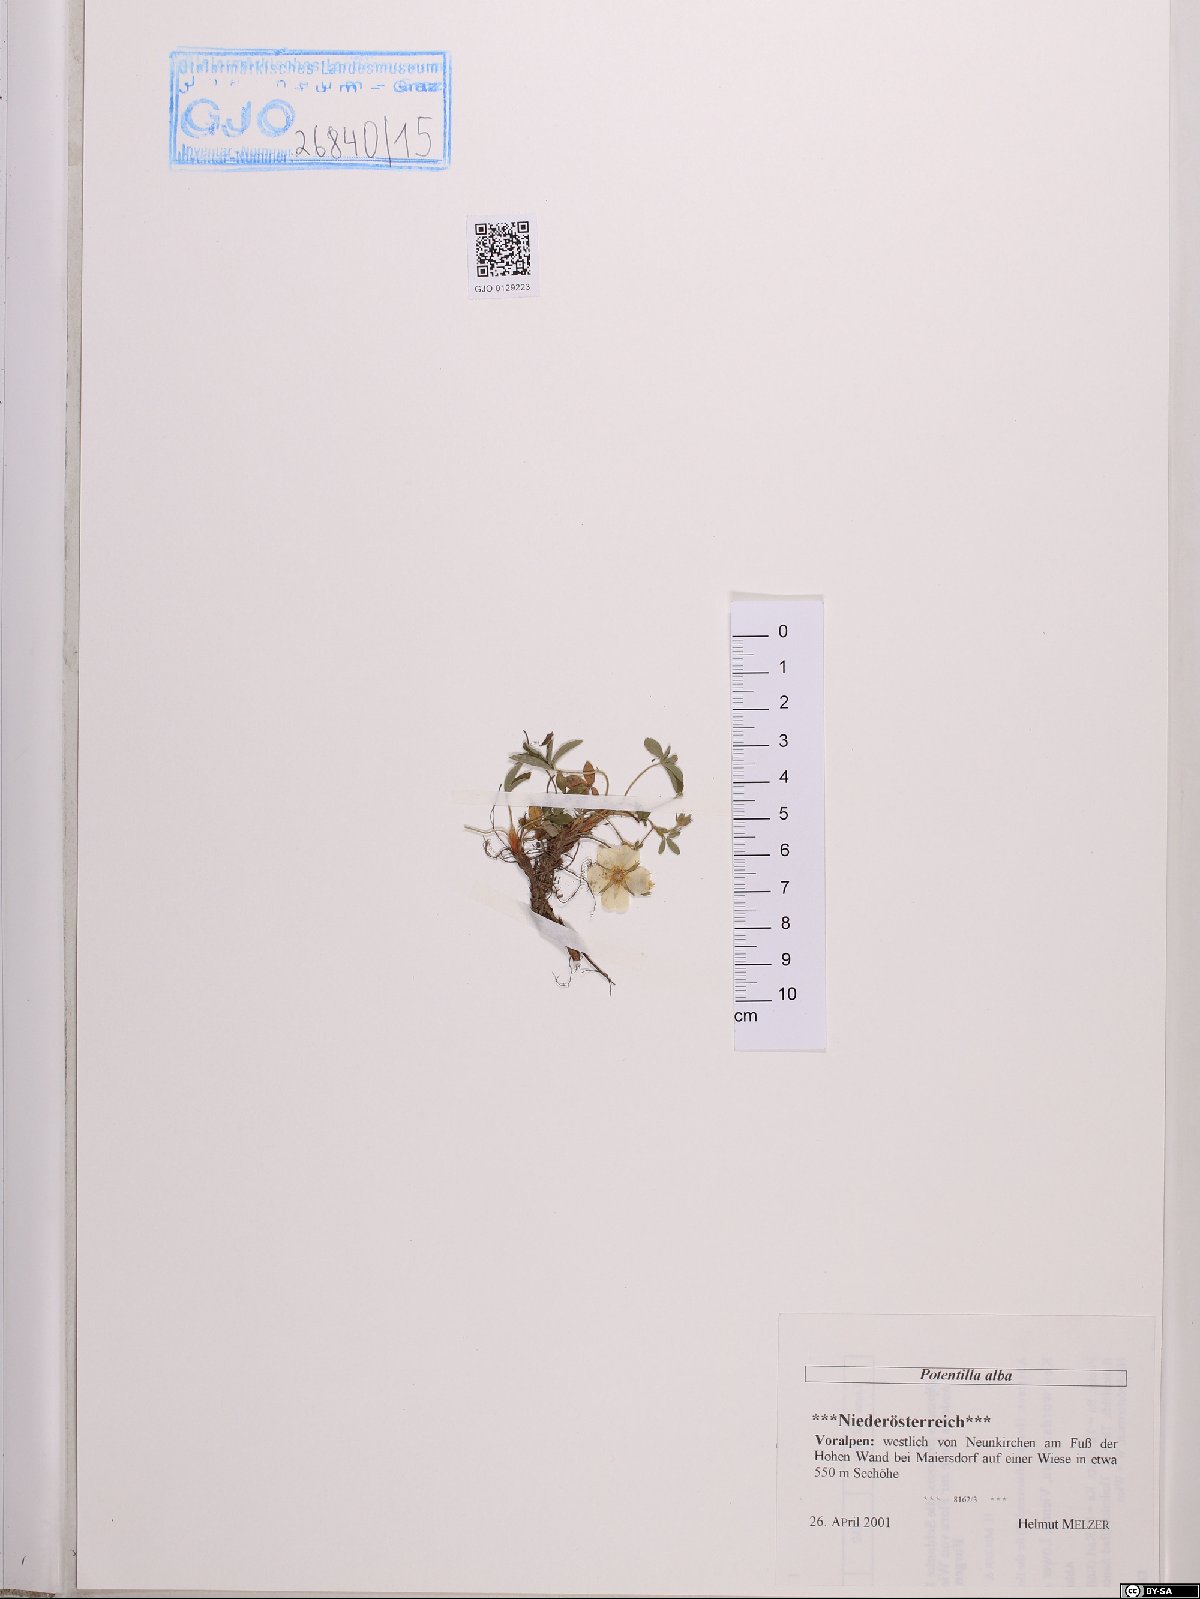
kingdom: Plantae
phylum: Tracheophyta
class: Magnoliopsida
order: Rosales
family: Rosaceae
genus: Potentilla
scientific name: Potentilla alba
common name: White cinquefoil
